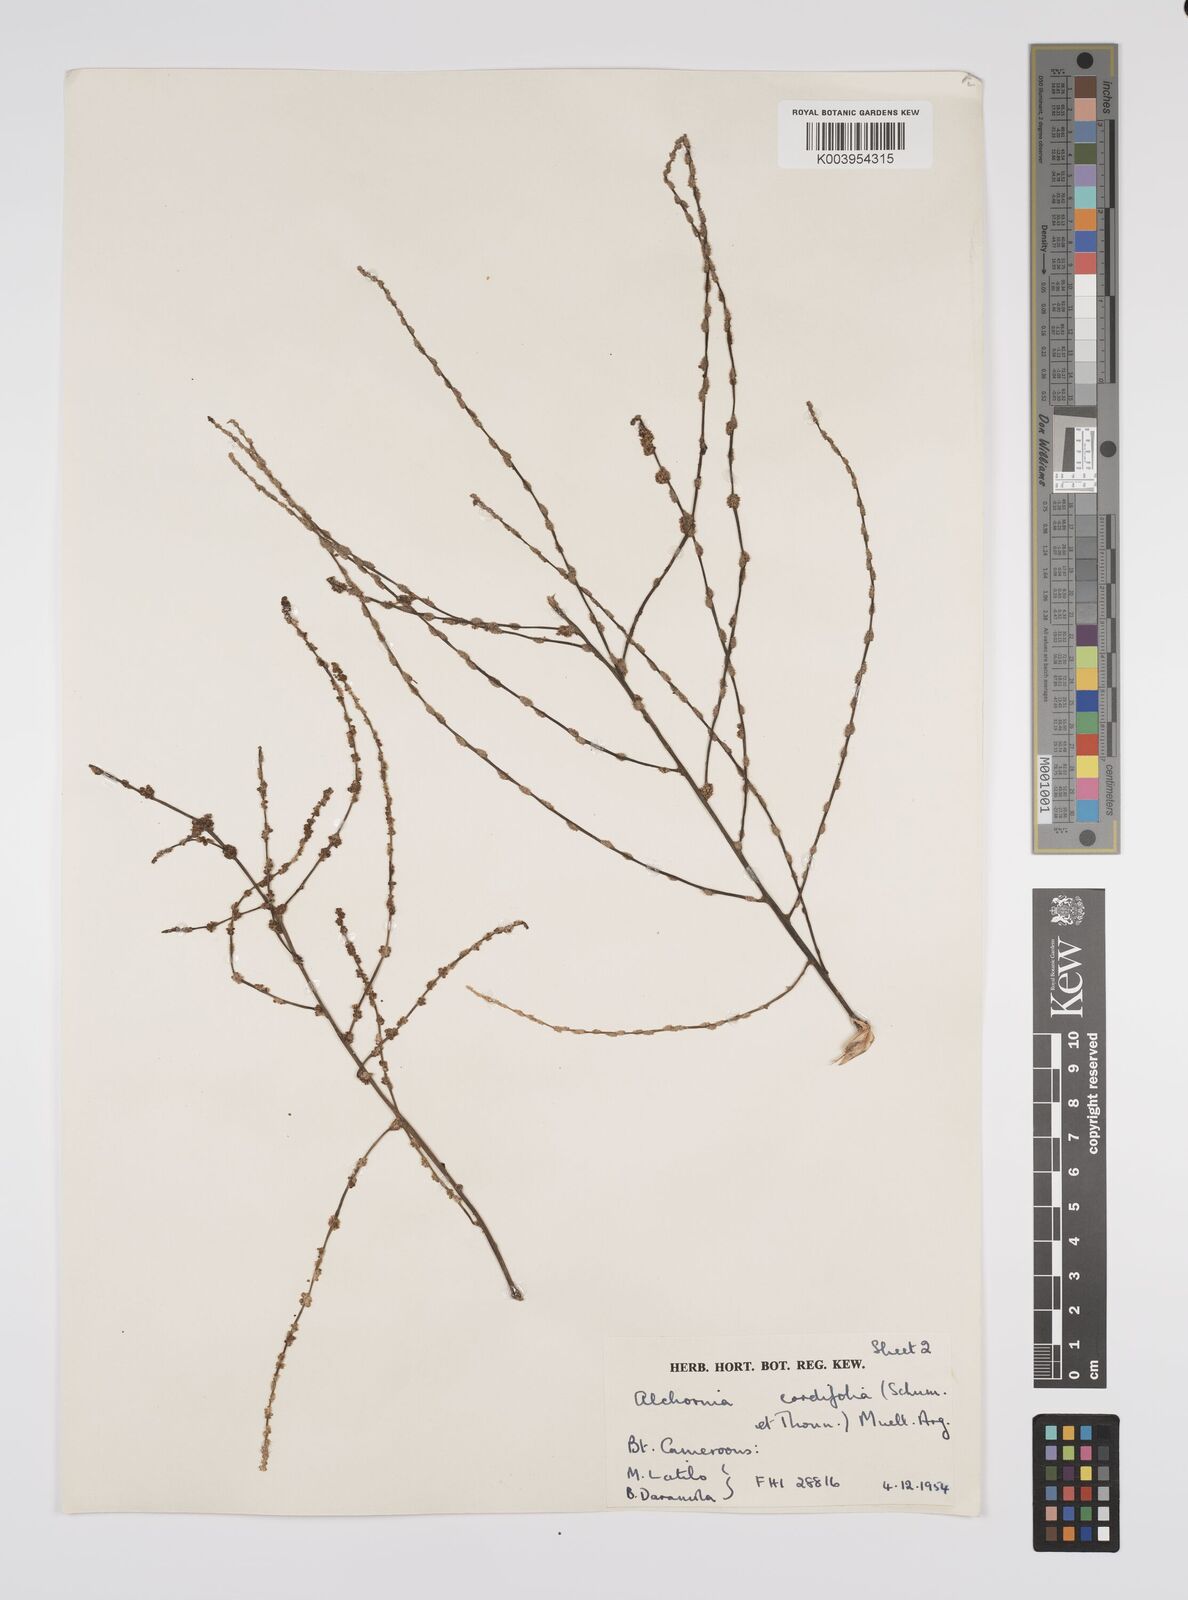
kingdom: Plantae
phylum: Tracheophyta
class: Magnoliopsida
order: Malpighiales
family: Euphorbiaceae
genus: Alchornea
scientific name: Alchornea cordifolia
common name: Christmasbush
